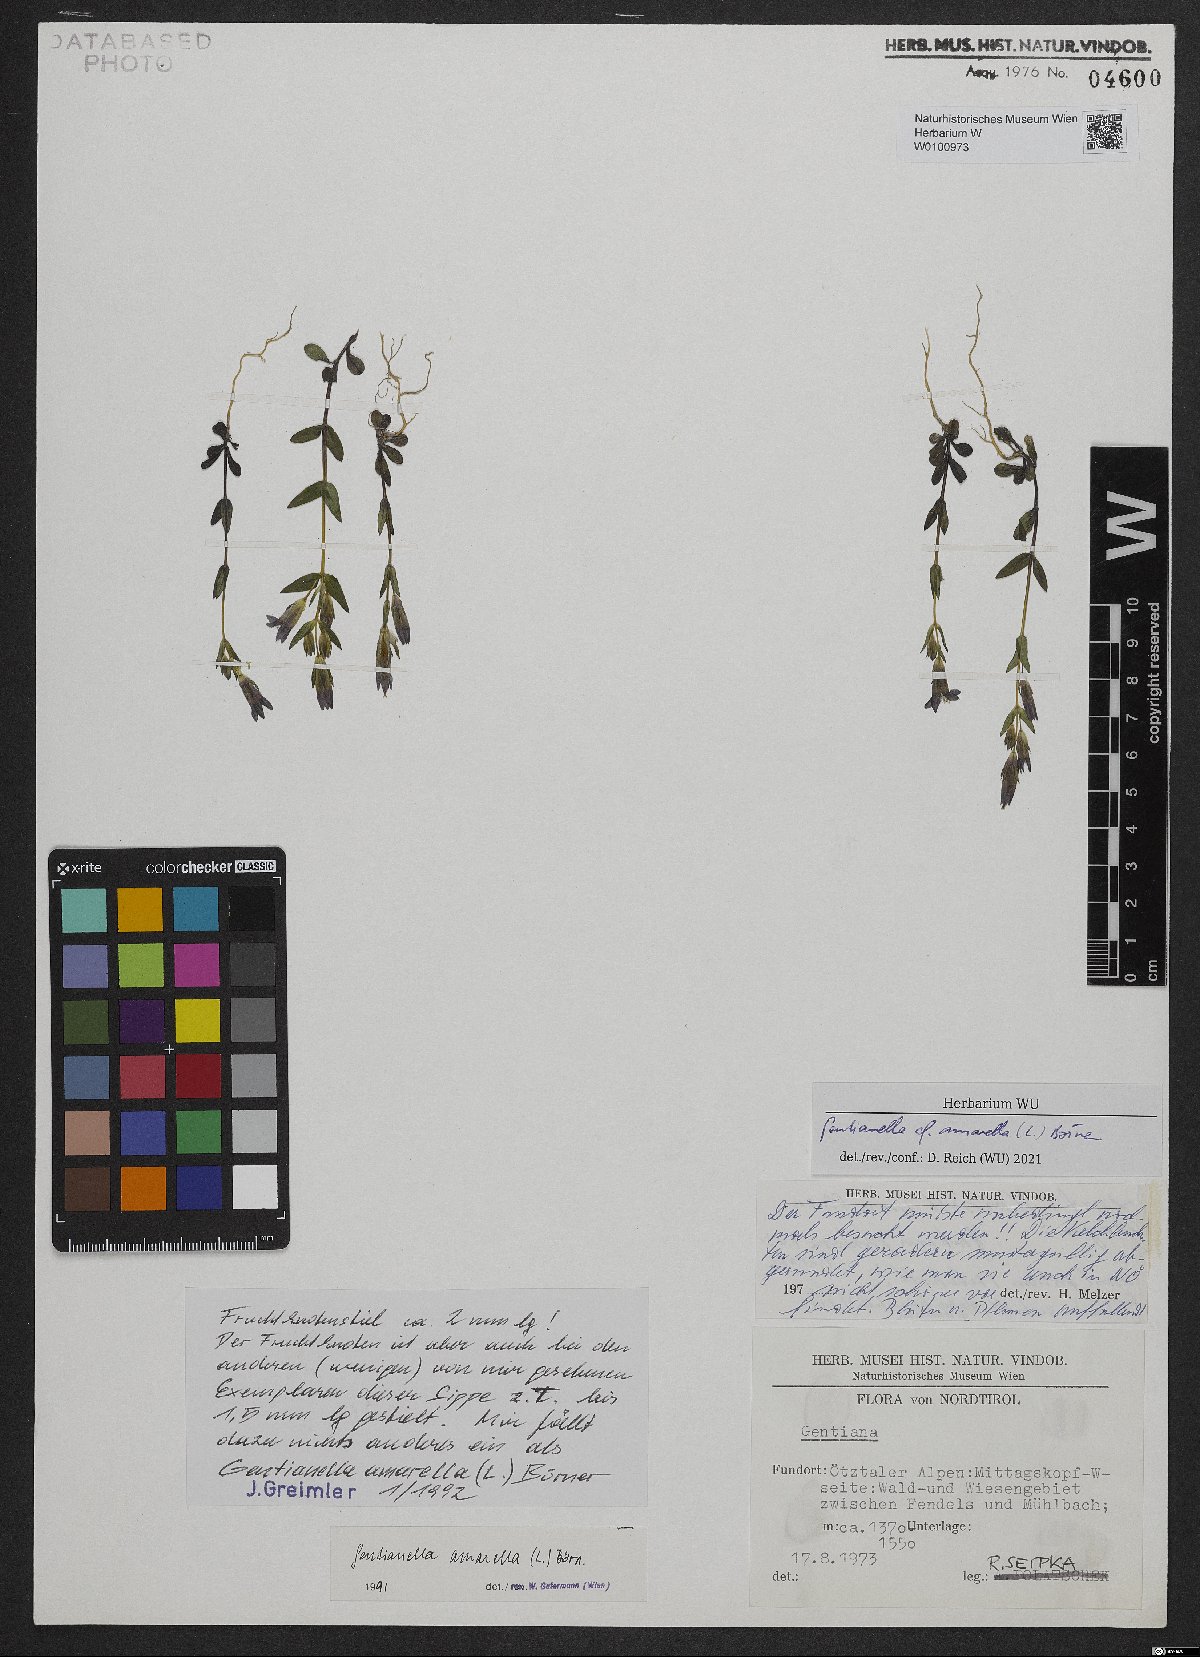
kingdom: Plantae
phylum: Tracheophyta
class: Magnoliopsida
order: Gentianales
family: Gentianaceae
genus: Gentianella
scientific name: Gentianella amarella
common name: Autumn gentian
